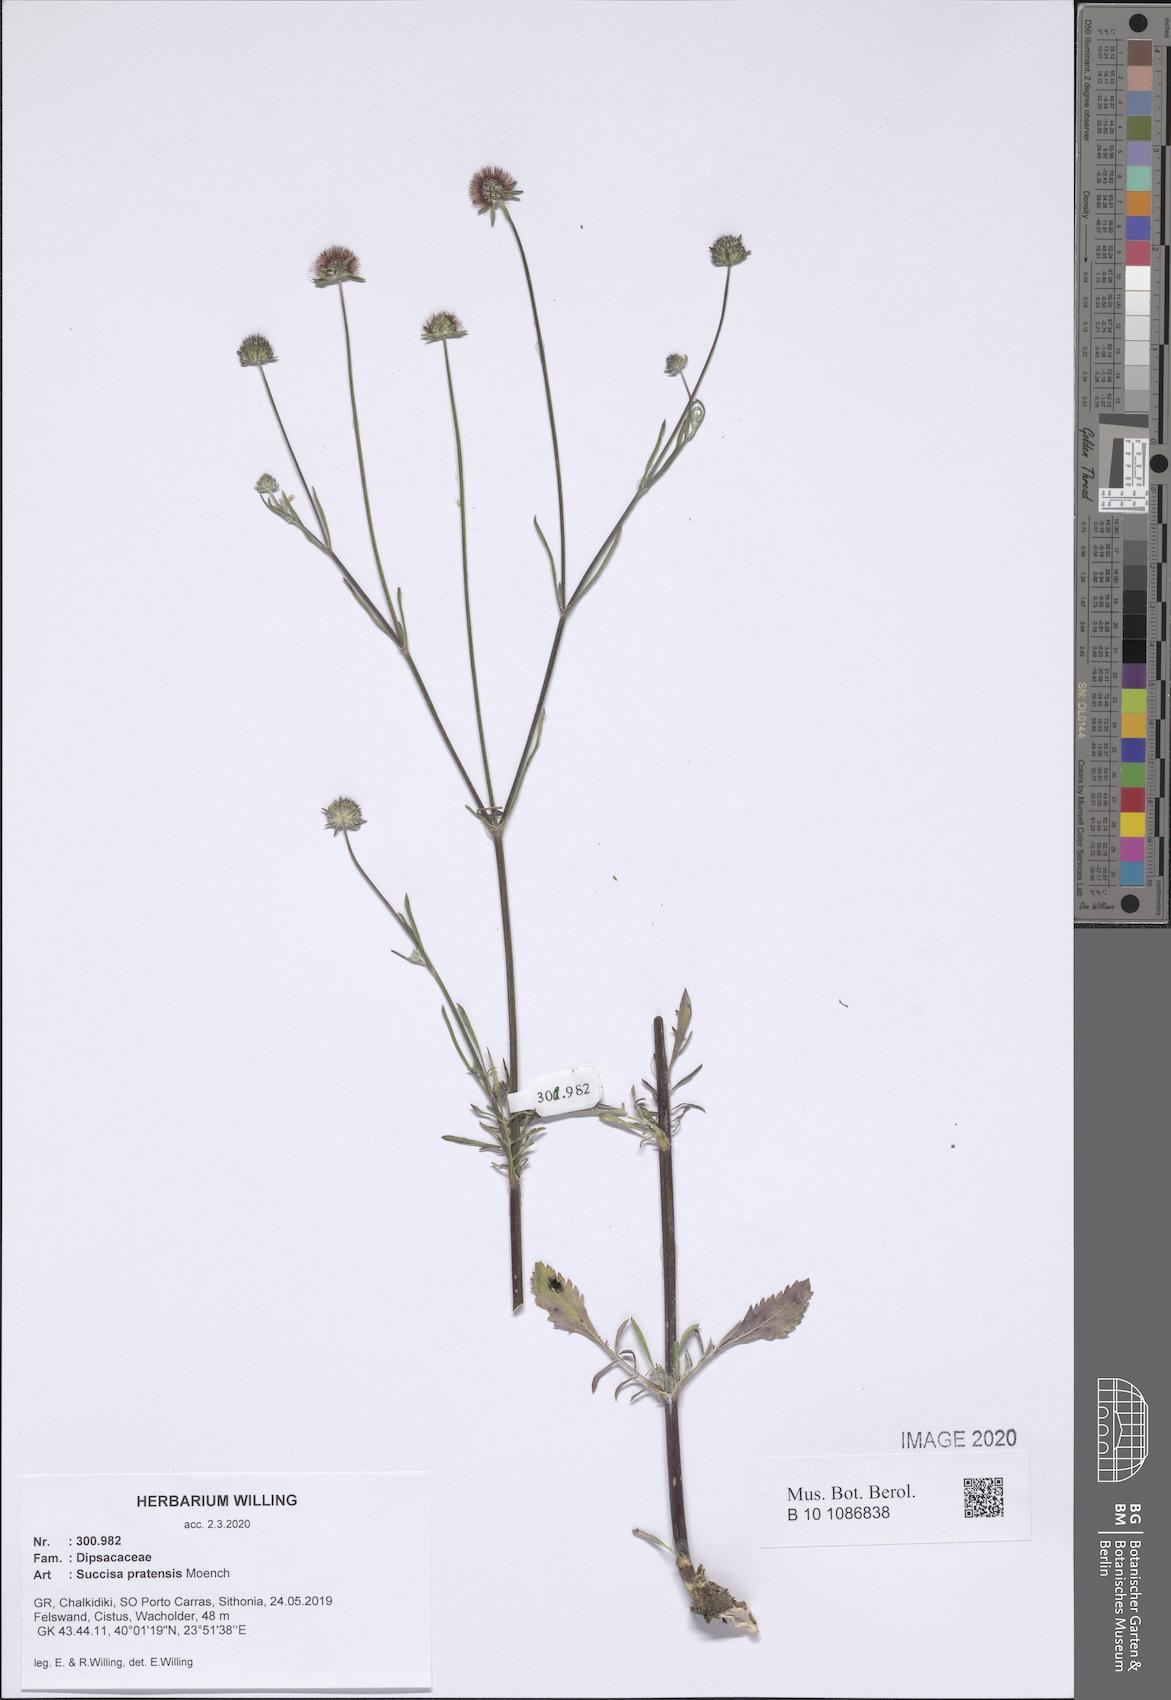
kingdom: Plantae
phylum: Tracheophyta
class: Magnoliopsida
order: Dipsacales
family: Caprifoliaceae
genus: Succisa
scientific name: Succisa pratensis
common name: Devil's-bit
